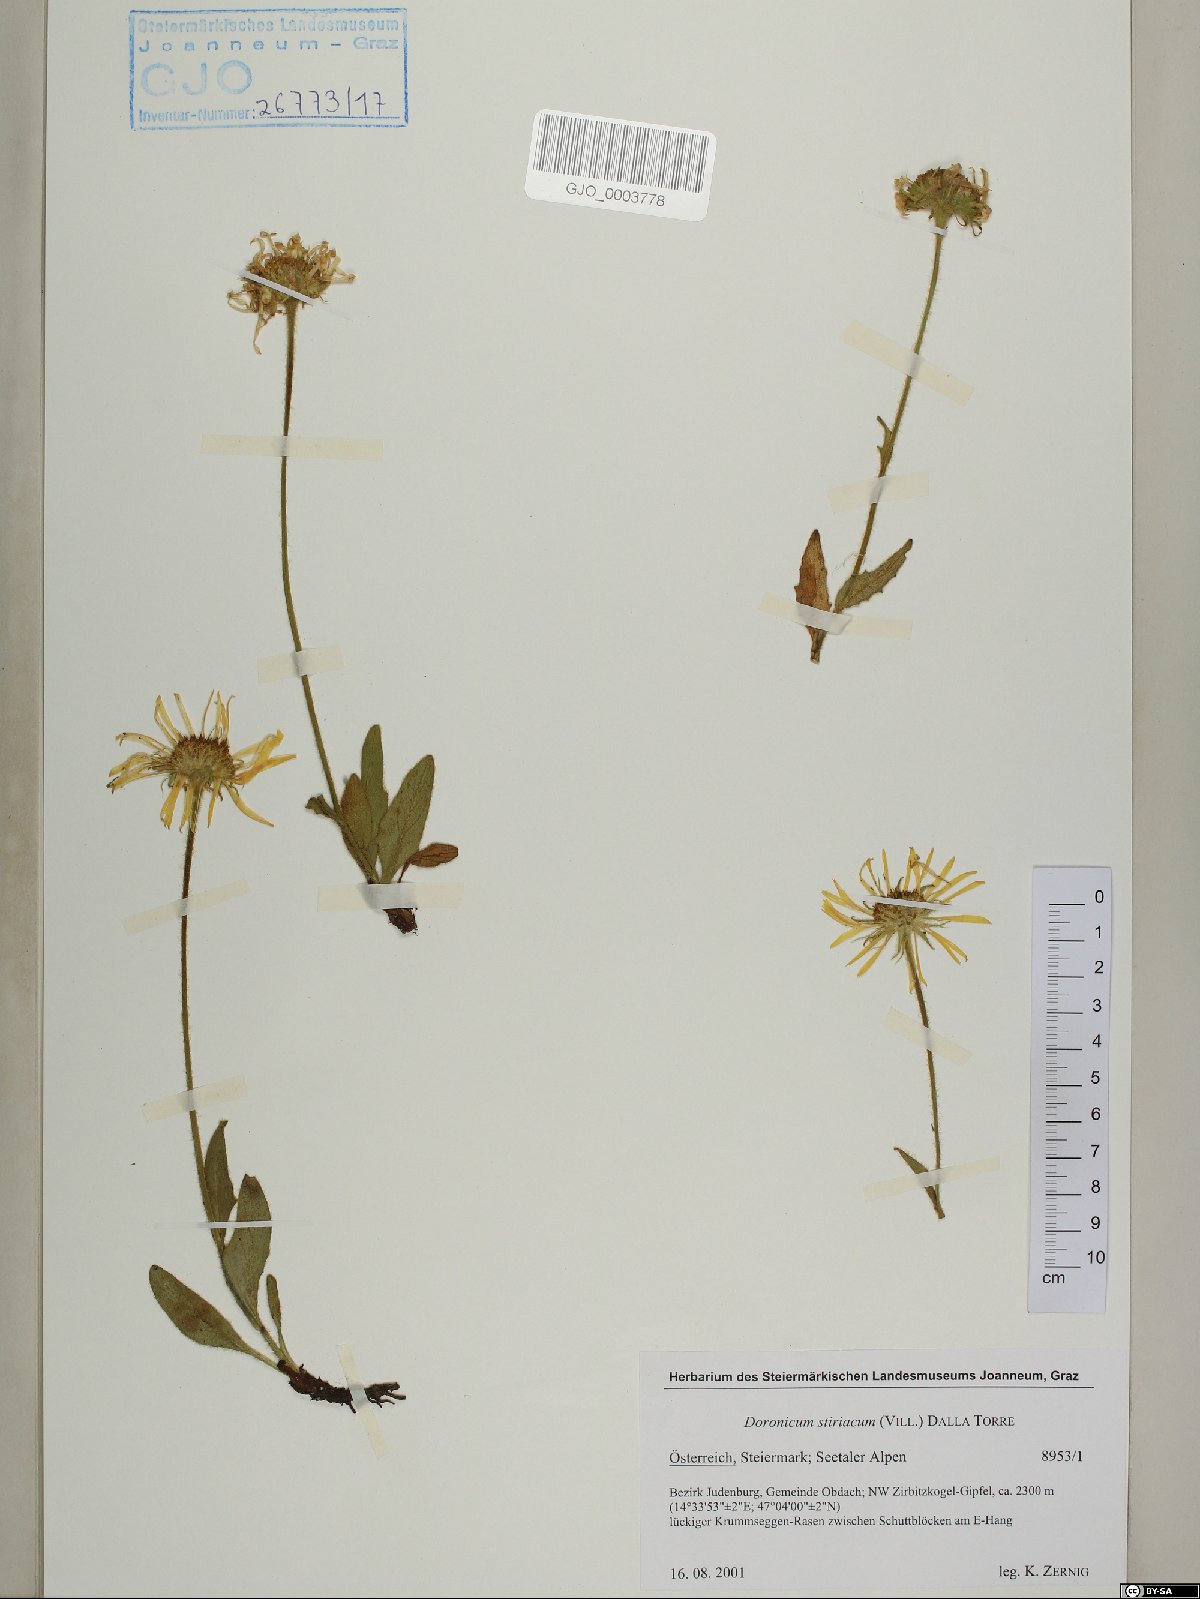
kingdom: Plantae
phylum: Tracheophyta
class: Magnoliopsida
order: Asterales
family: Asteraceae
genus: Doronicum
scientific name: Doronicum clusii
